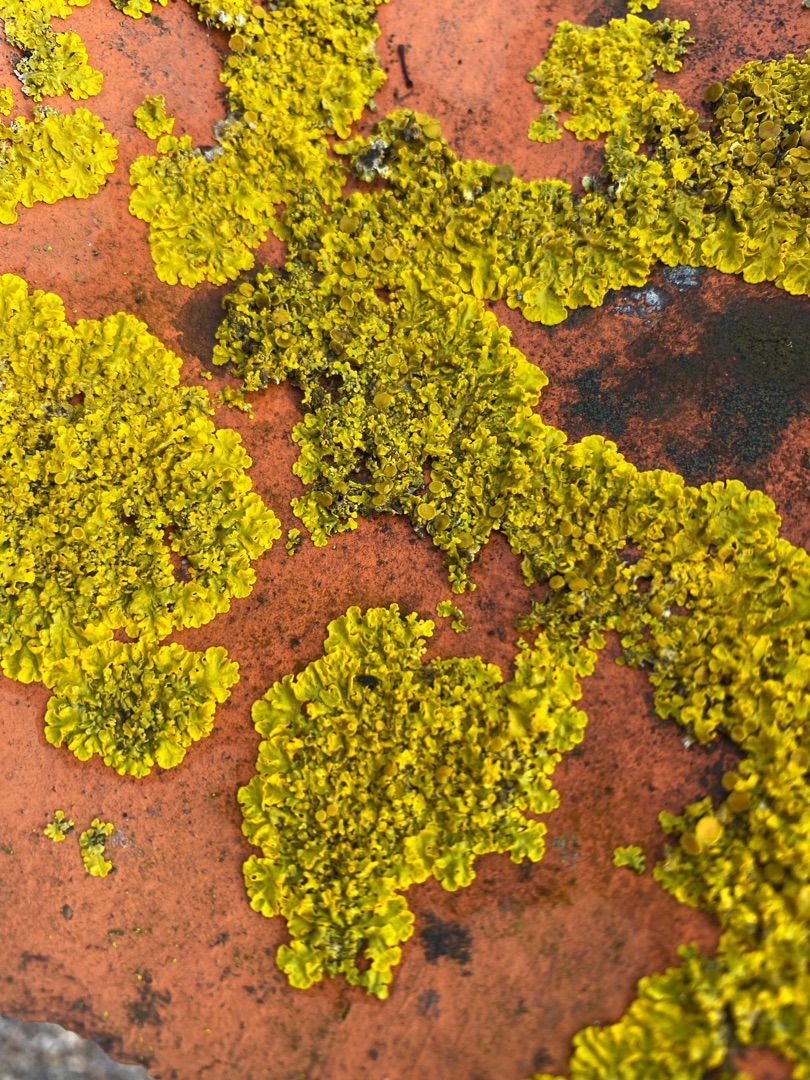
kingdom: Fungi
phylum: Ascomycota
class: Lecanoromycetes
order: Teloschistales
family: Teloschistaceae
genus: Xanthoria
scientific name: Xanthoria parietina
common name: Almindelig væggelav
